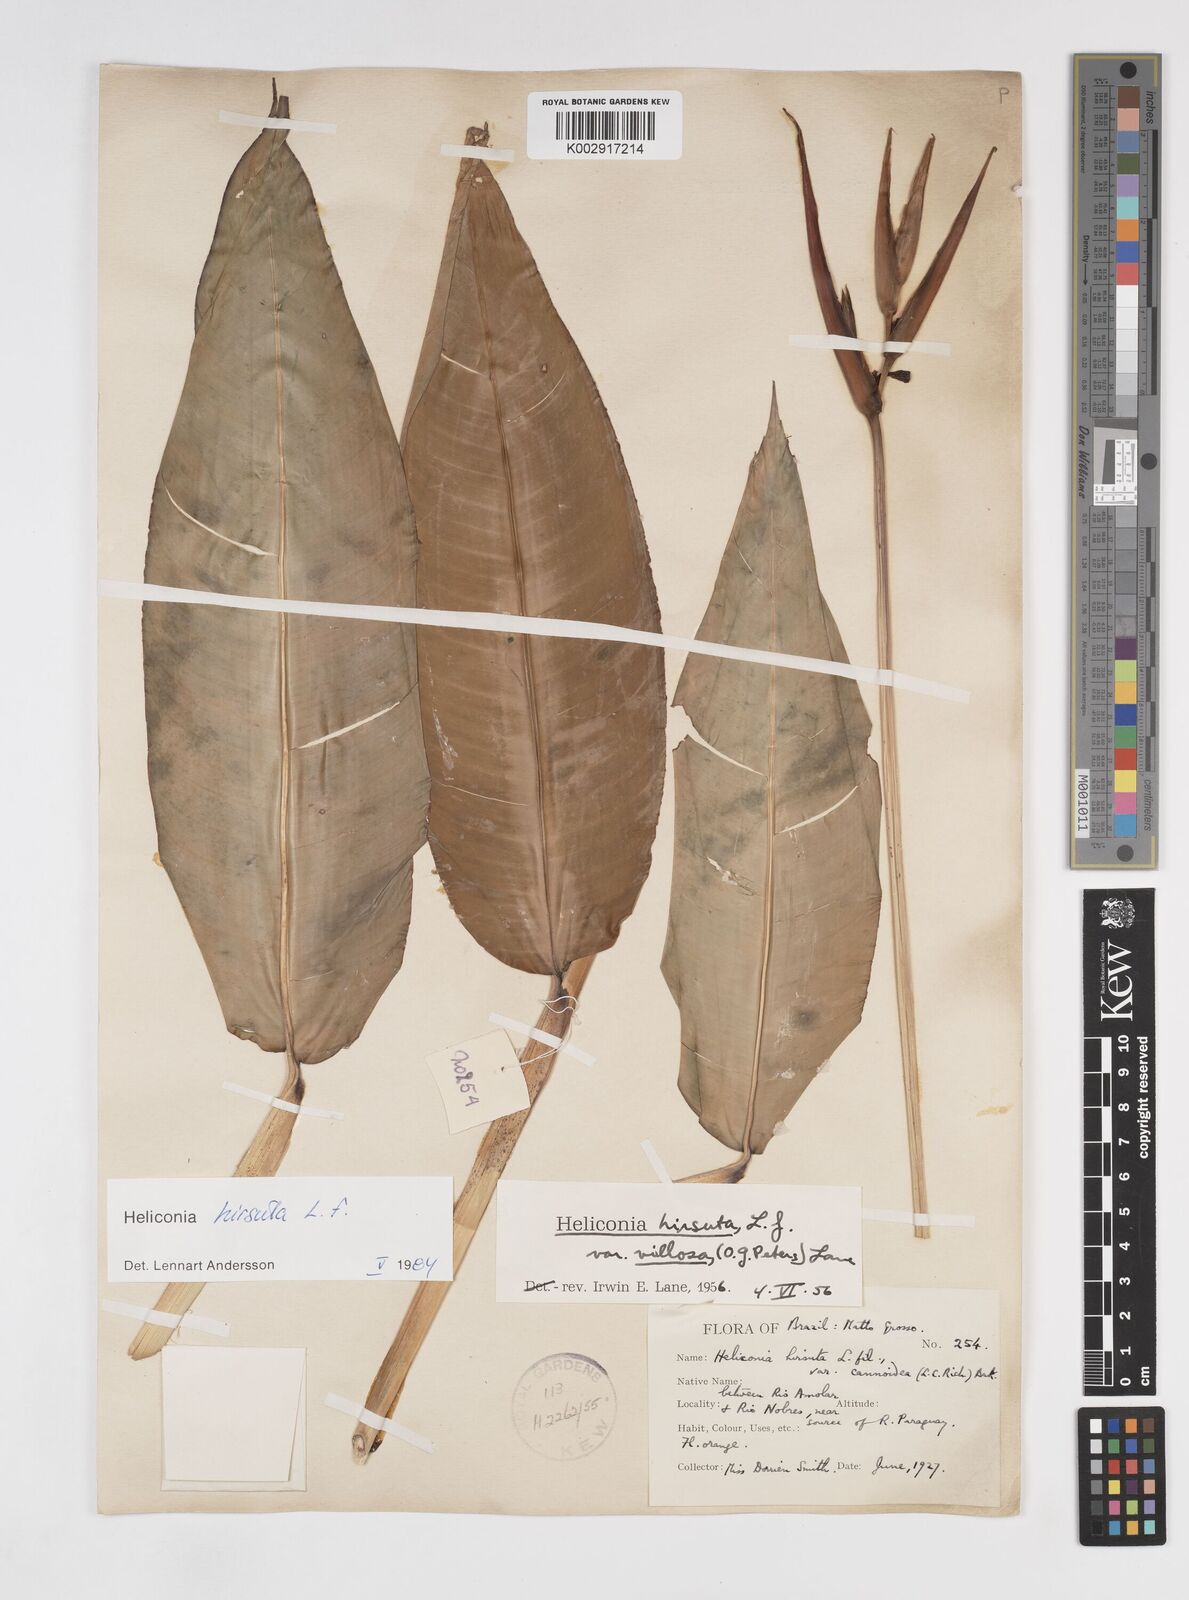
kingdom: Plantae
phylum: Tracheophyta
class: Liliopsida
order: Zingiberales
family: Heliconiaceae
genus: Heliconia
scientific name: Heliconia hirsuta
